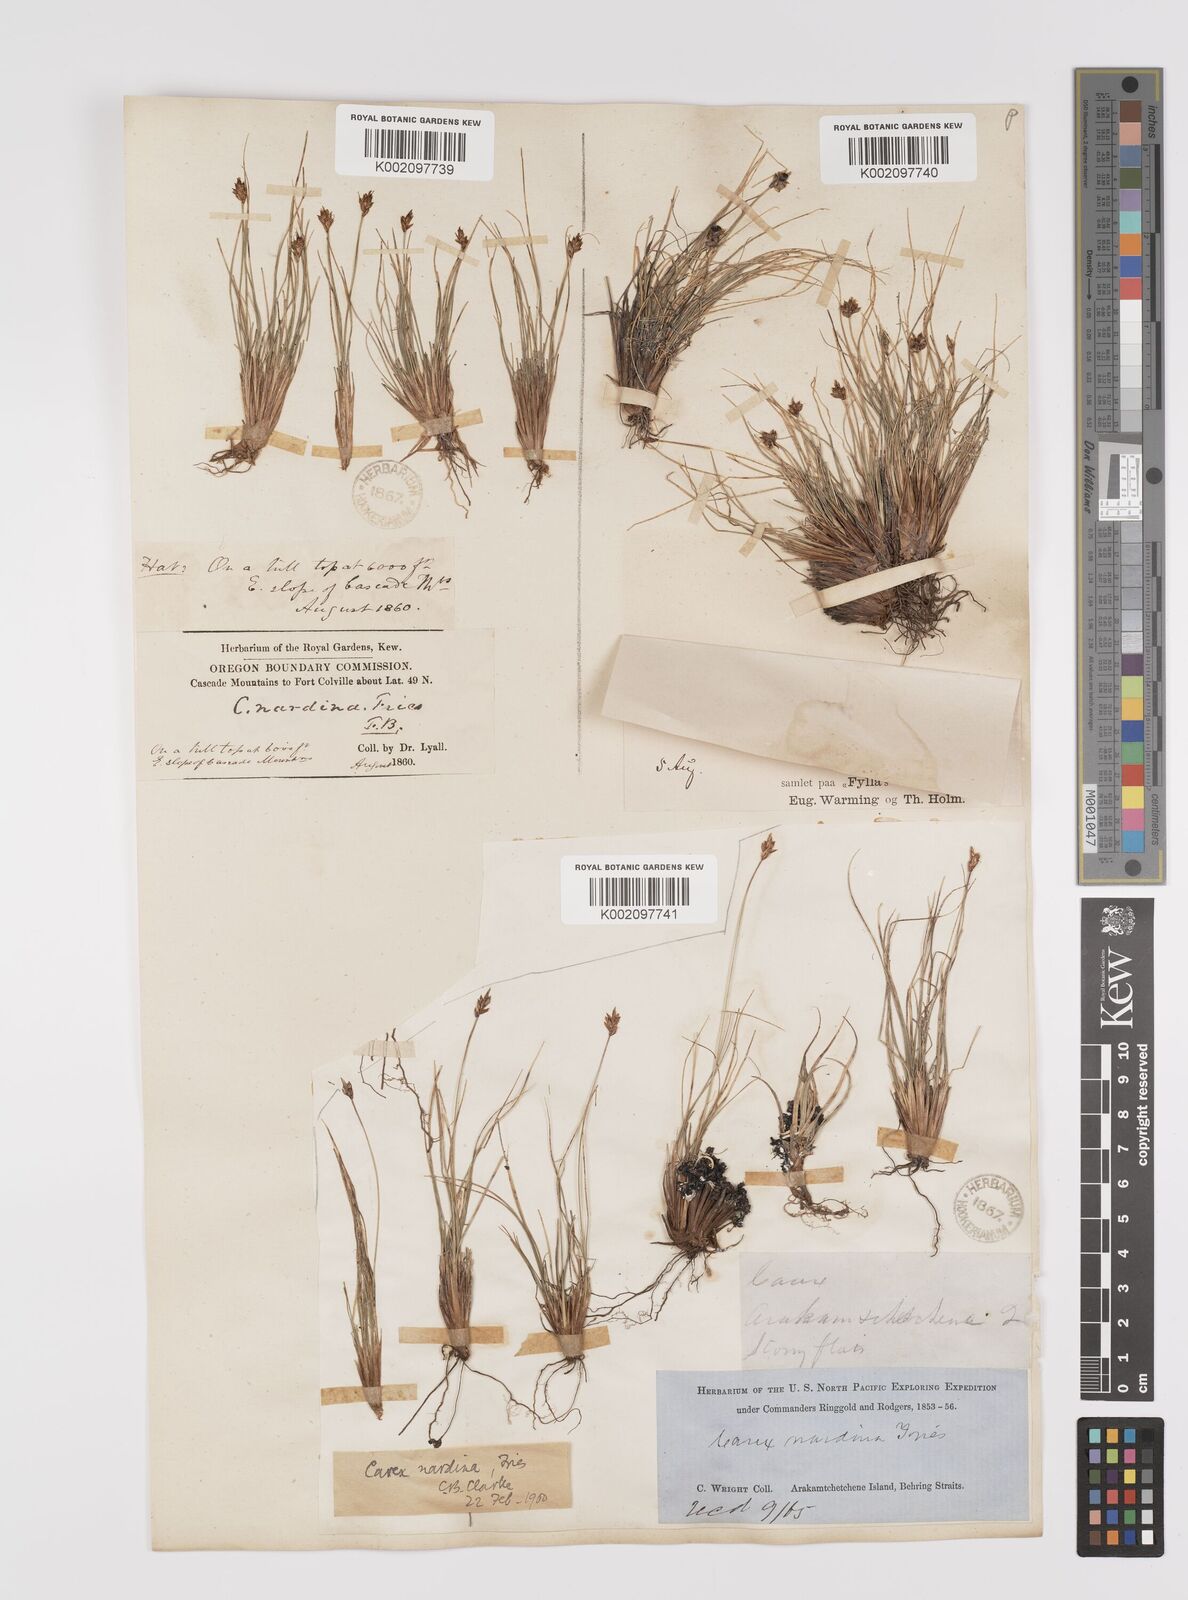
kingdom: Plantae
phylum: Tracheophyta
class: Liliopsida
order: Poales
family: Cyperaceae
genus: Carex
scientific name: Carex nardina
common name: Nard sedge
